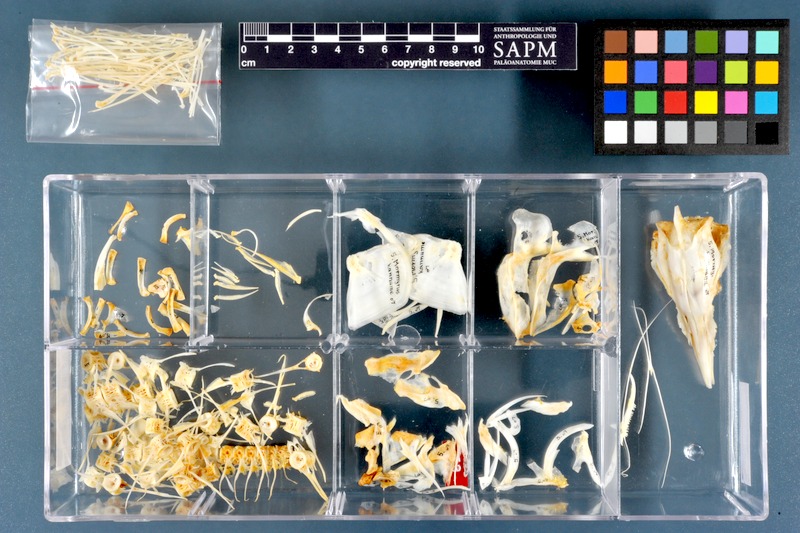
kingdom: Animalia
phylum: Chordata
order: Osteoglossiformes
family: Mormyridae
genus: Mormyrus
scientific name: Mormyrus kannume
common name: Elephant-snout fish
